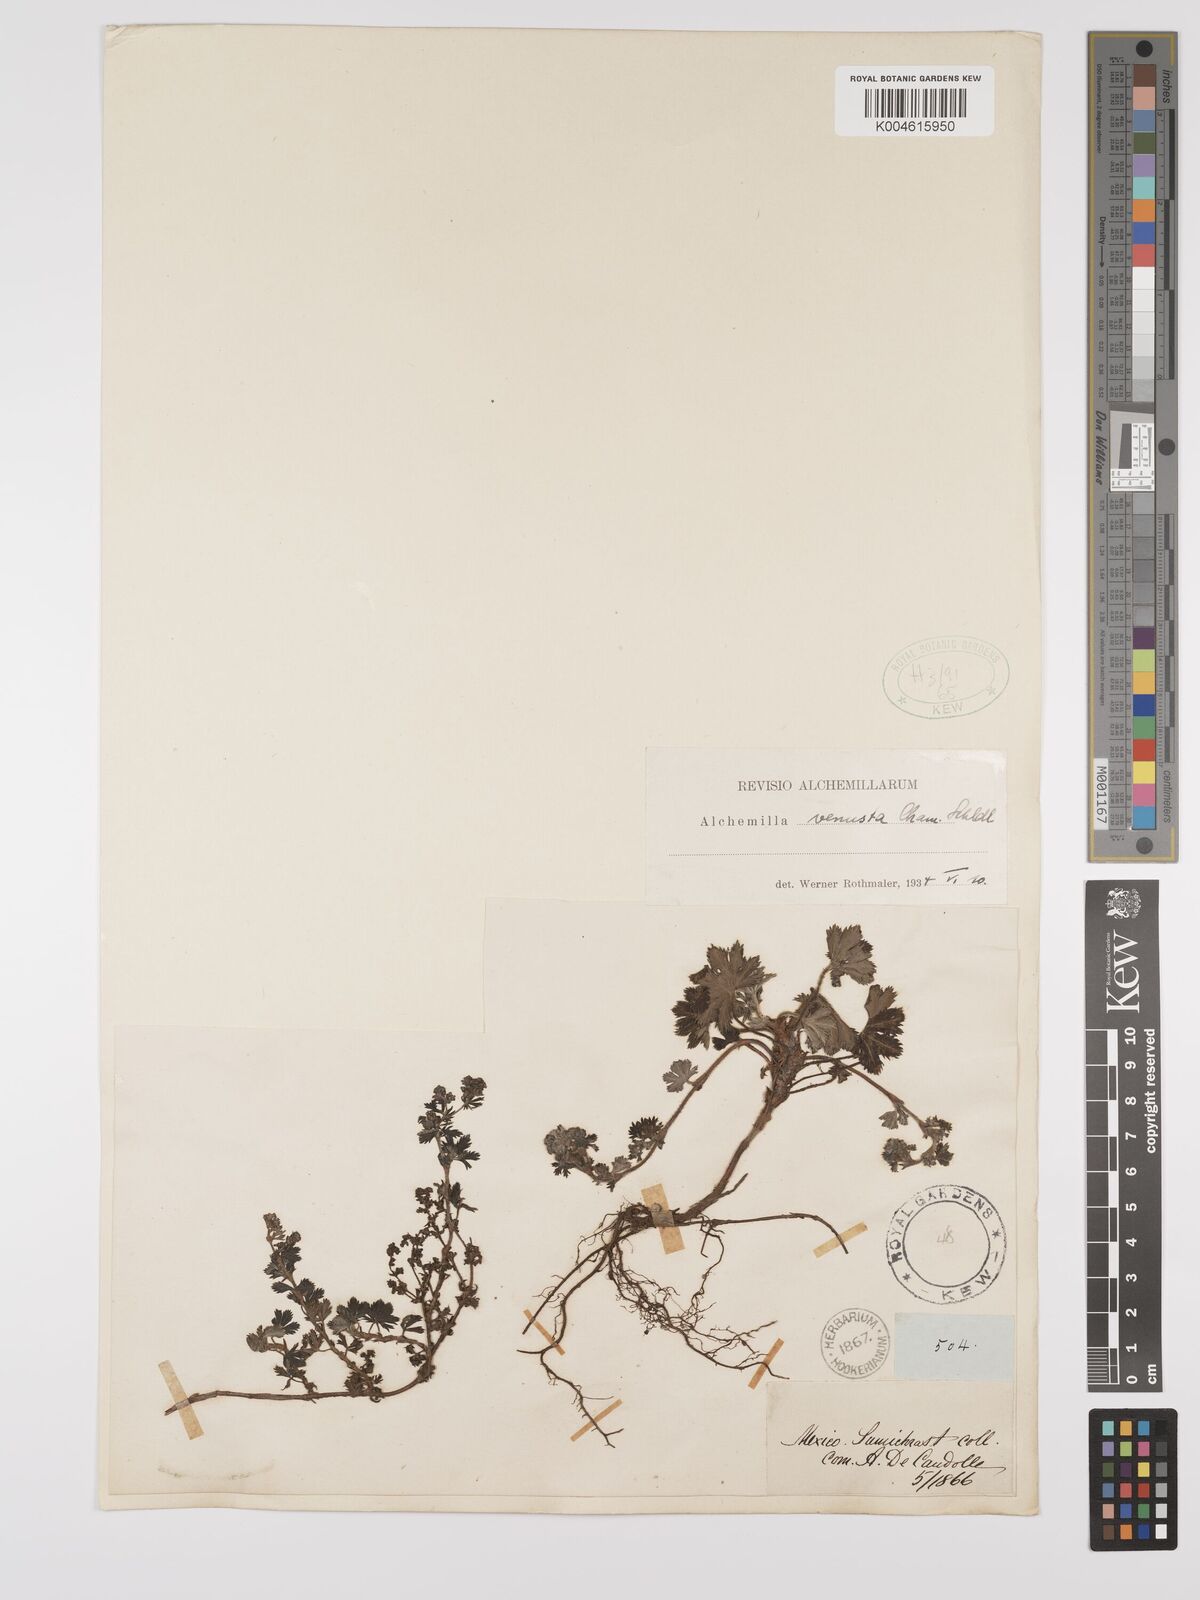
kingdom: Plantae
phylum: Tracheophyta
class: Magnoliopsida
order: Rosales
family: Rosaceae
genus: Lachemilla
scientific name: Lachemilla venusta
